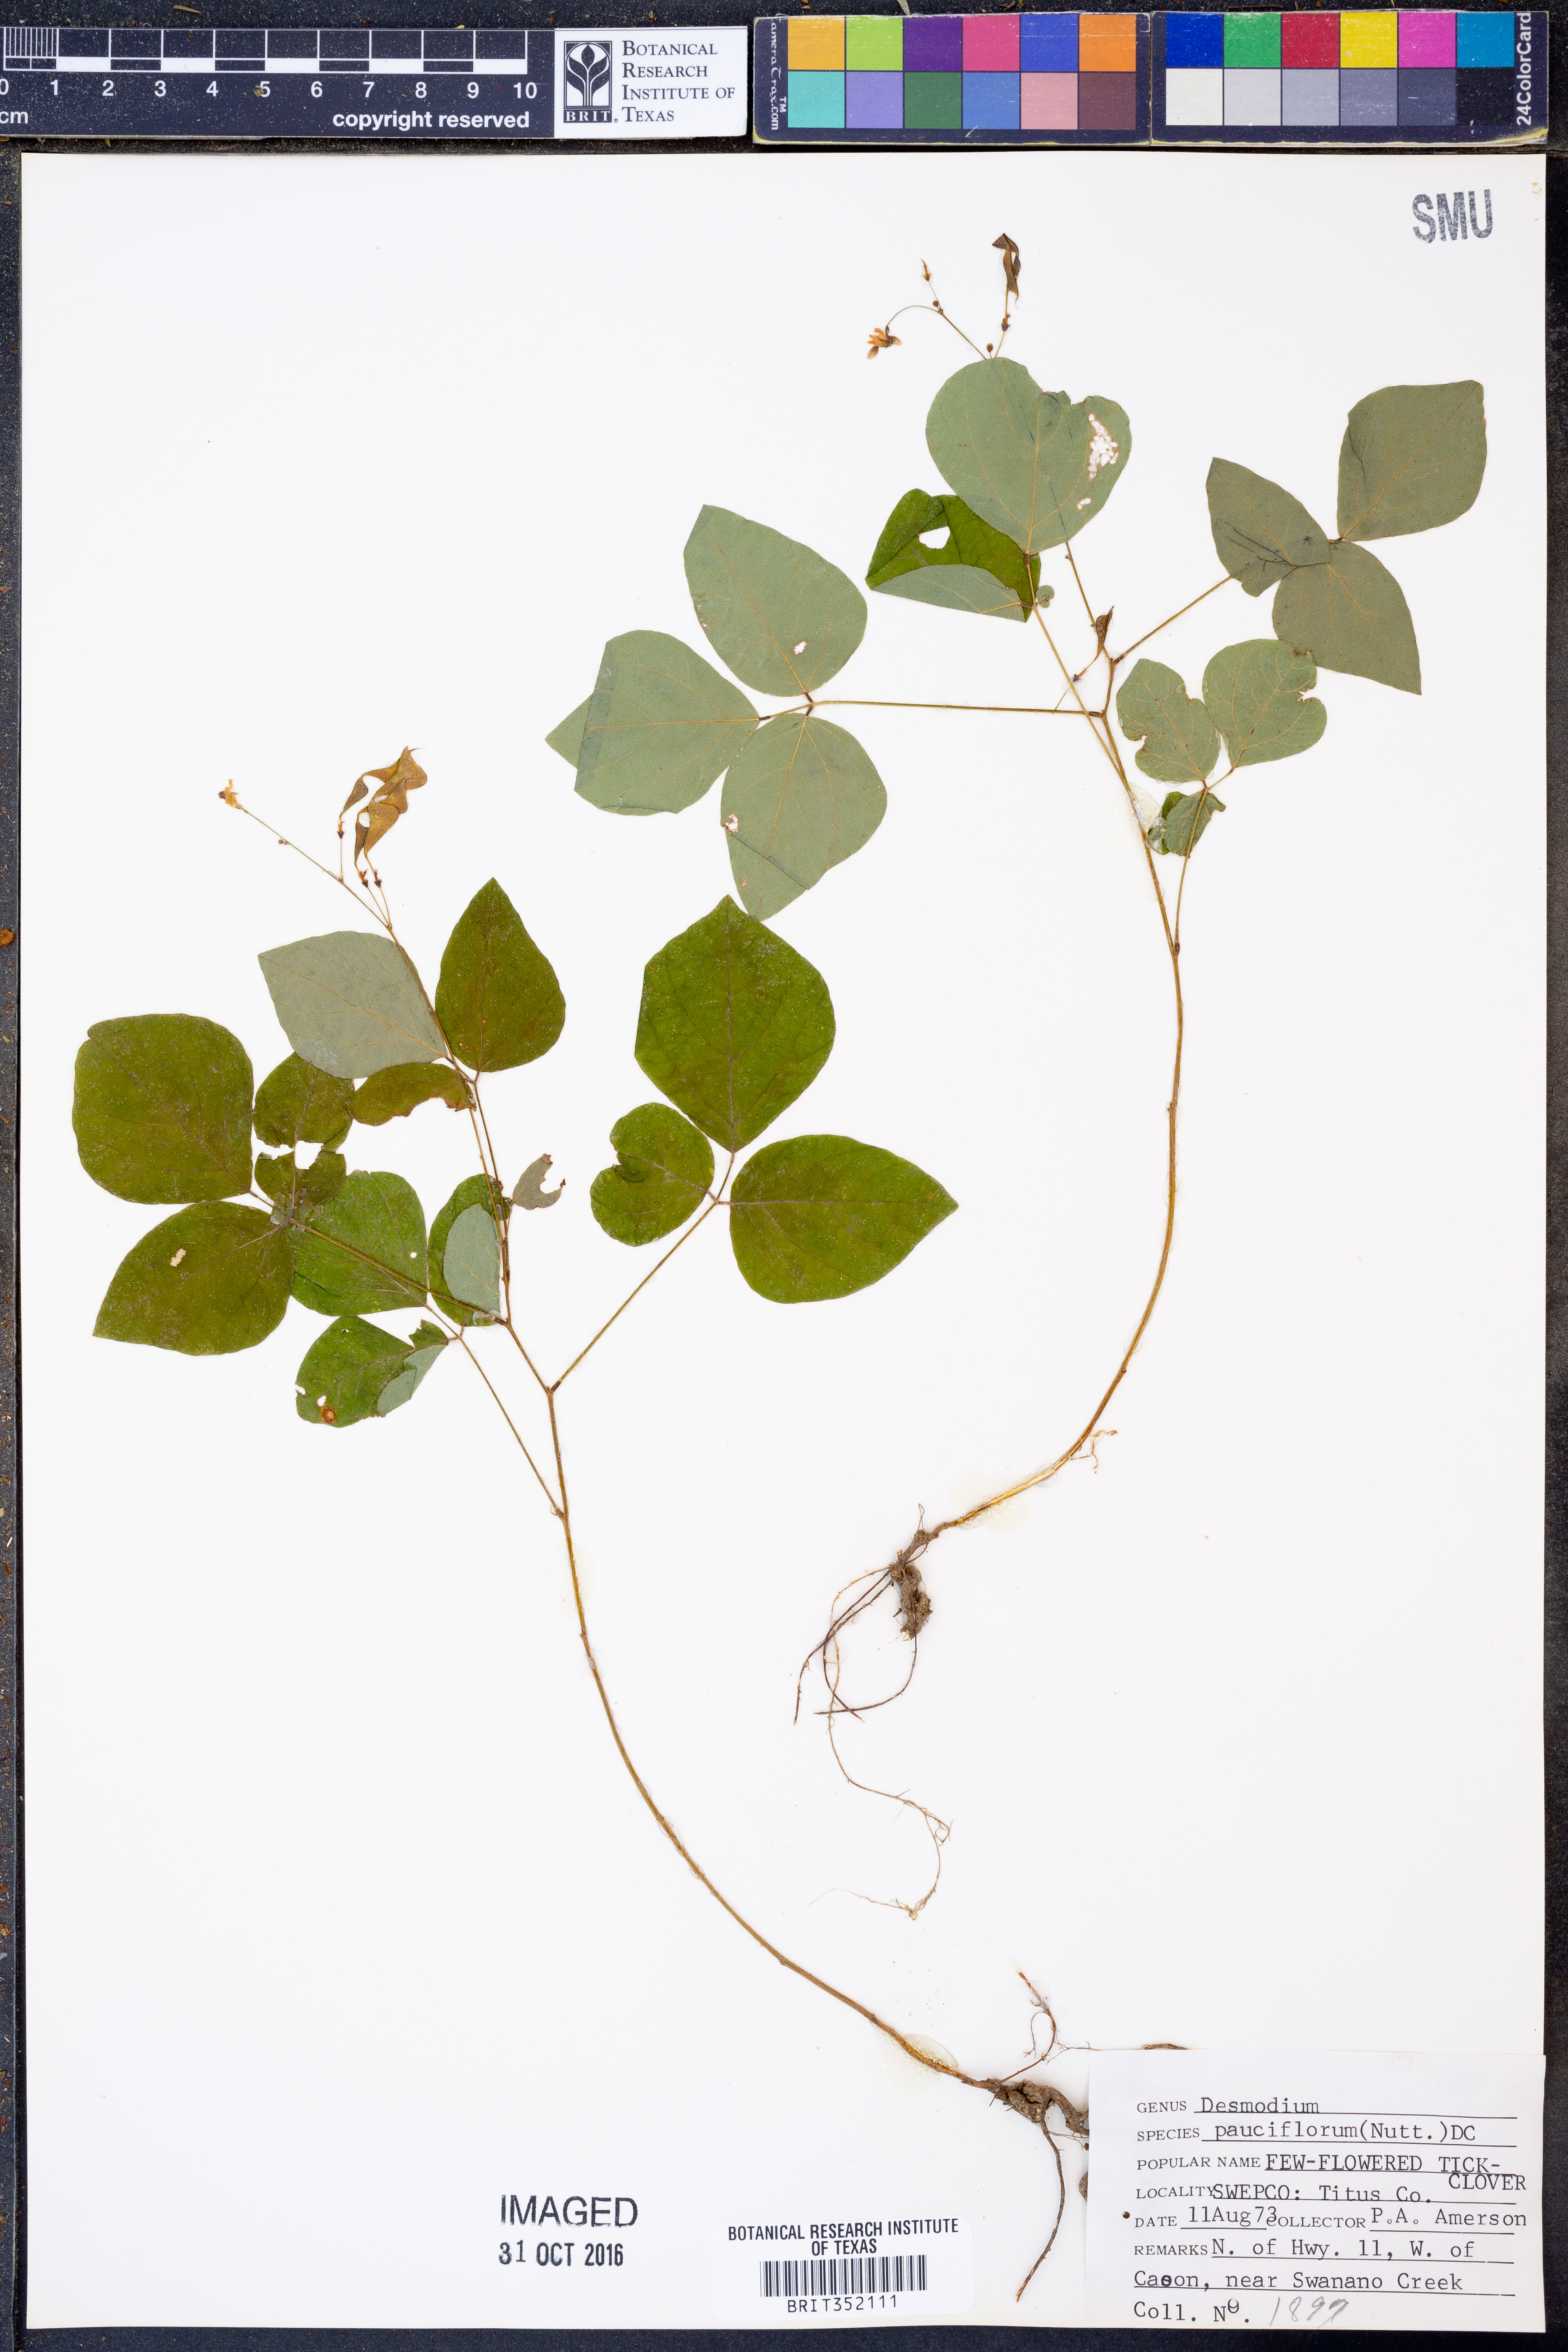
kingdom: Plantae
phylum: Tracheophyta
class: Magnoliopsida
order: Fabales
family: Fabaceae
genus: Hylodesmum
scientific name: Hylodesmum pauciflorum
